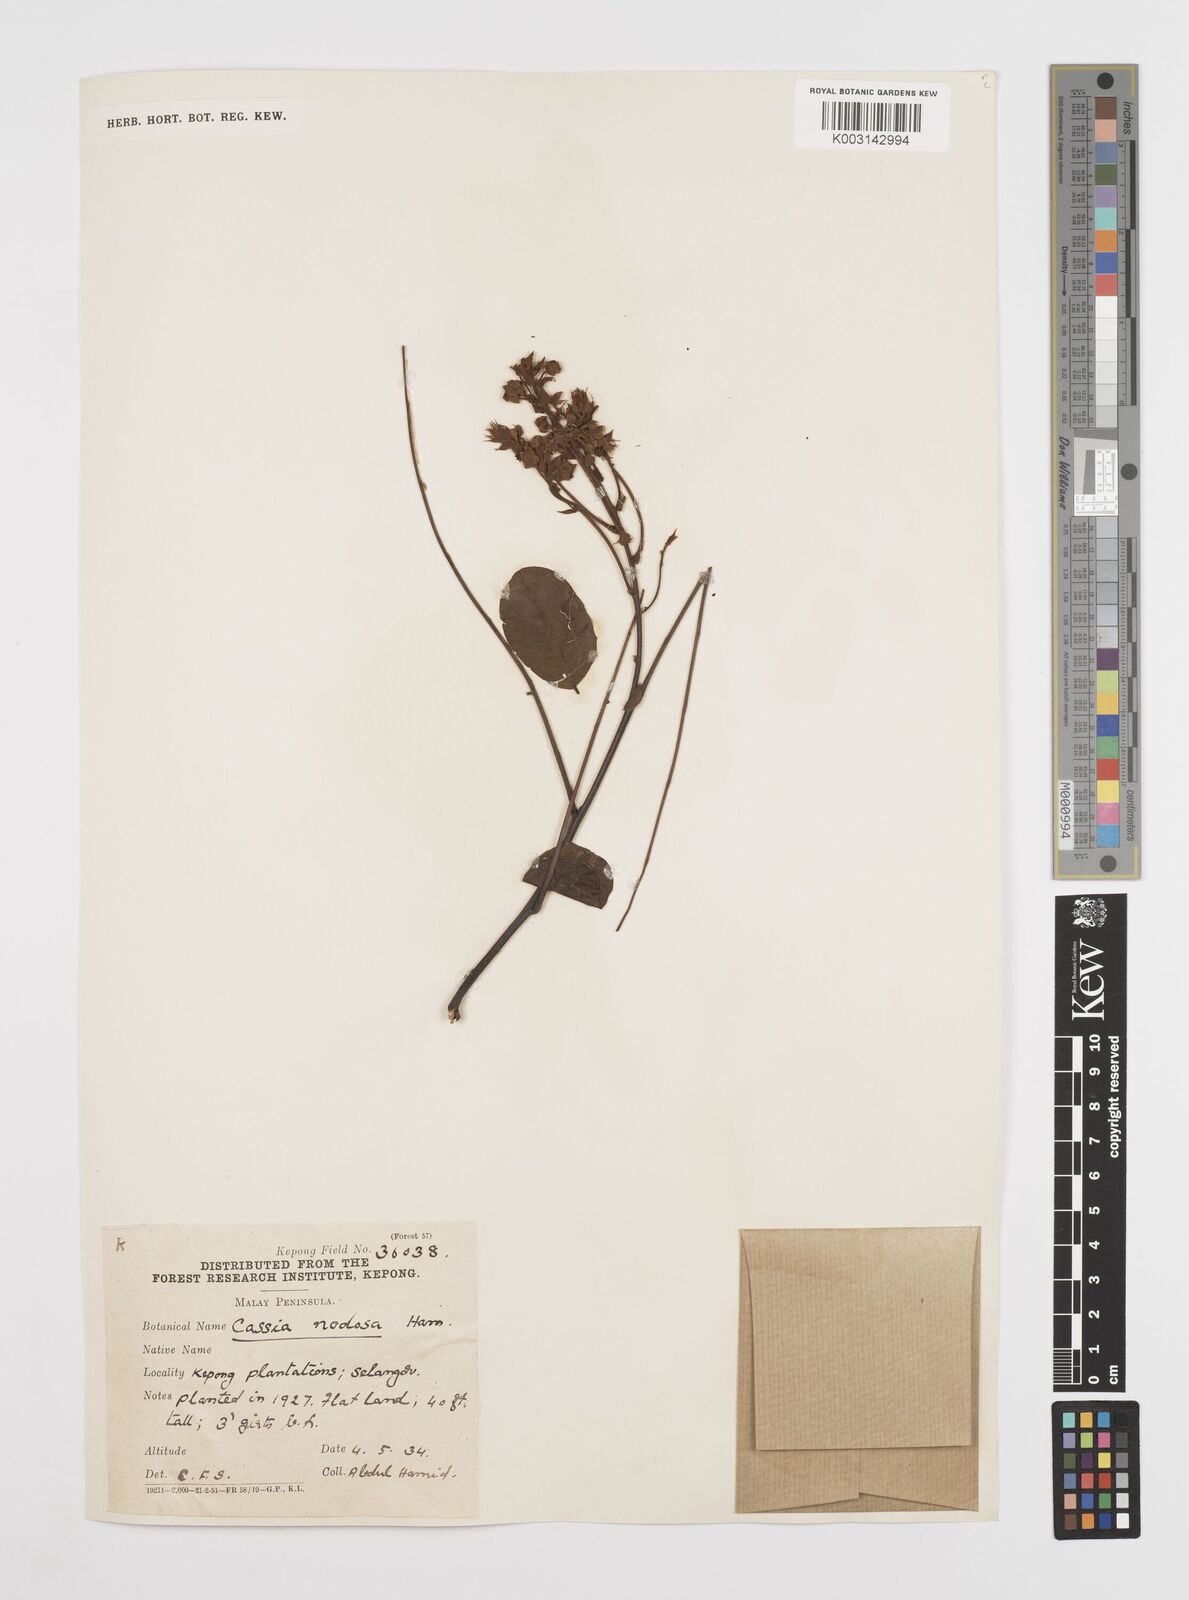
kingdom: Plantae
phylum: Tracheophyta
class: Magnoliopsida
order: Fabales
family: Fabaceae
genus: Cassia
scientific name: Cassia javanica
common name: Apple blossom
